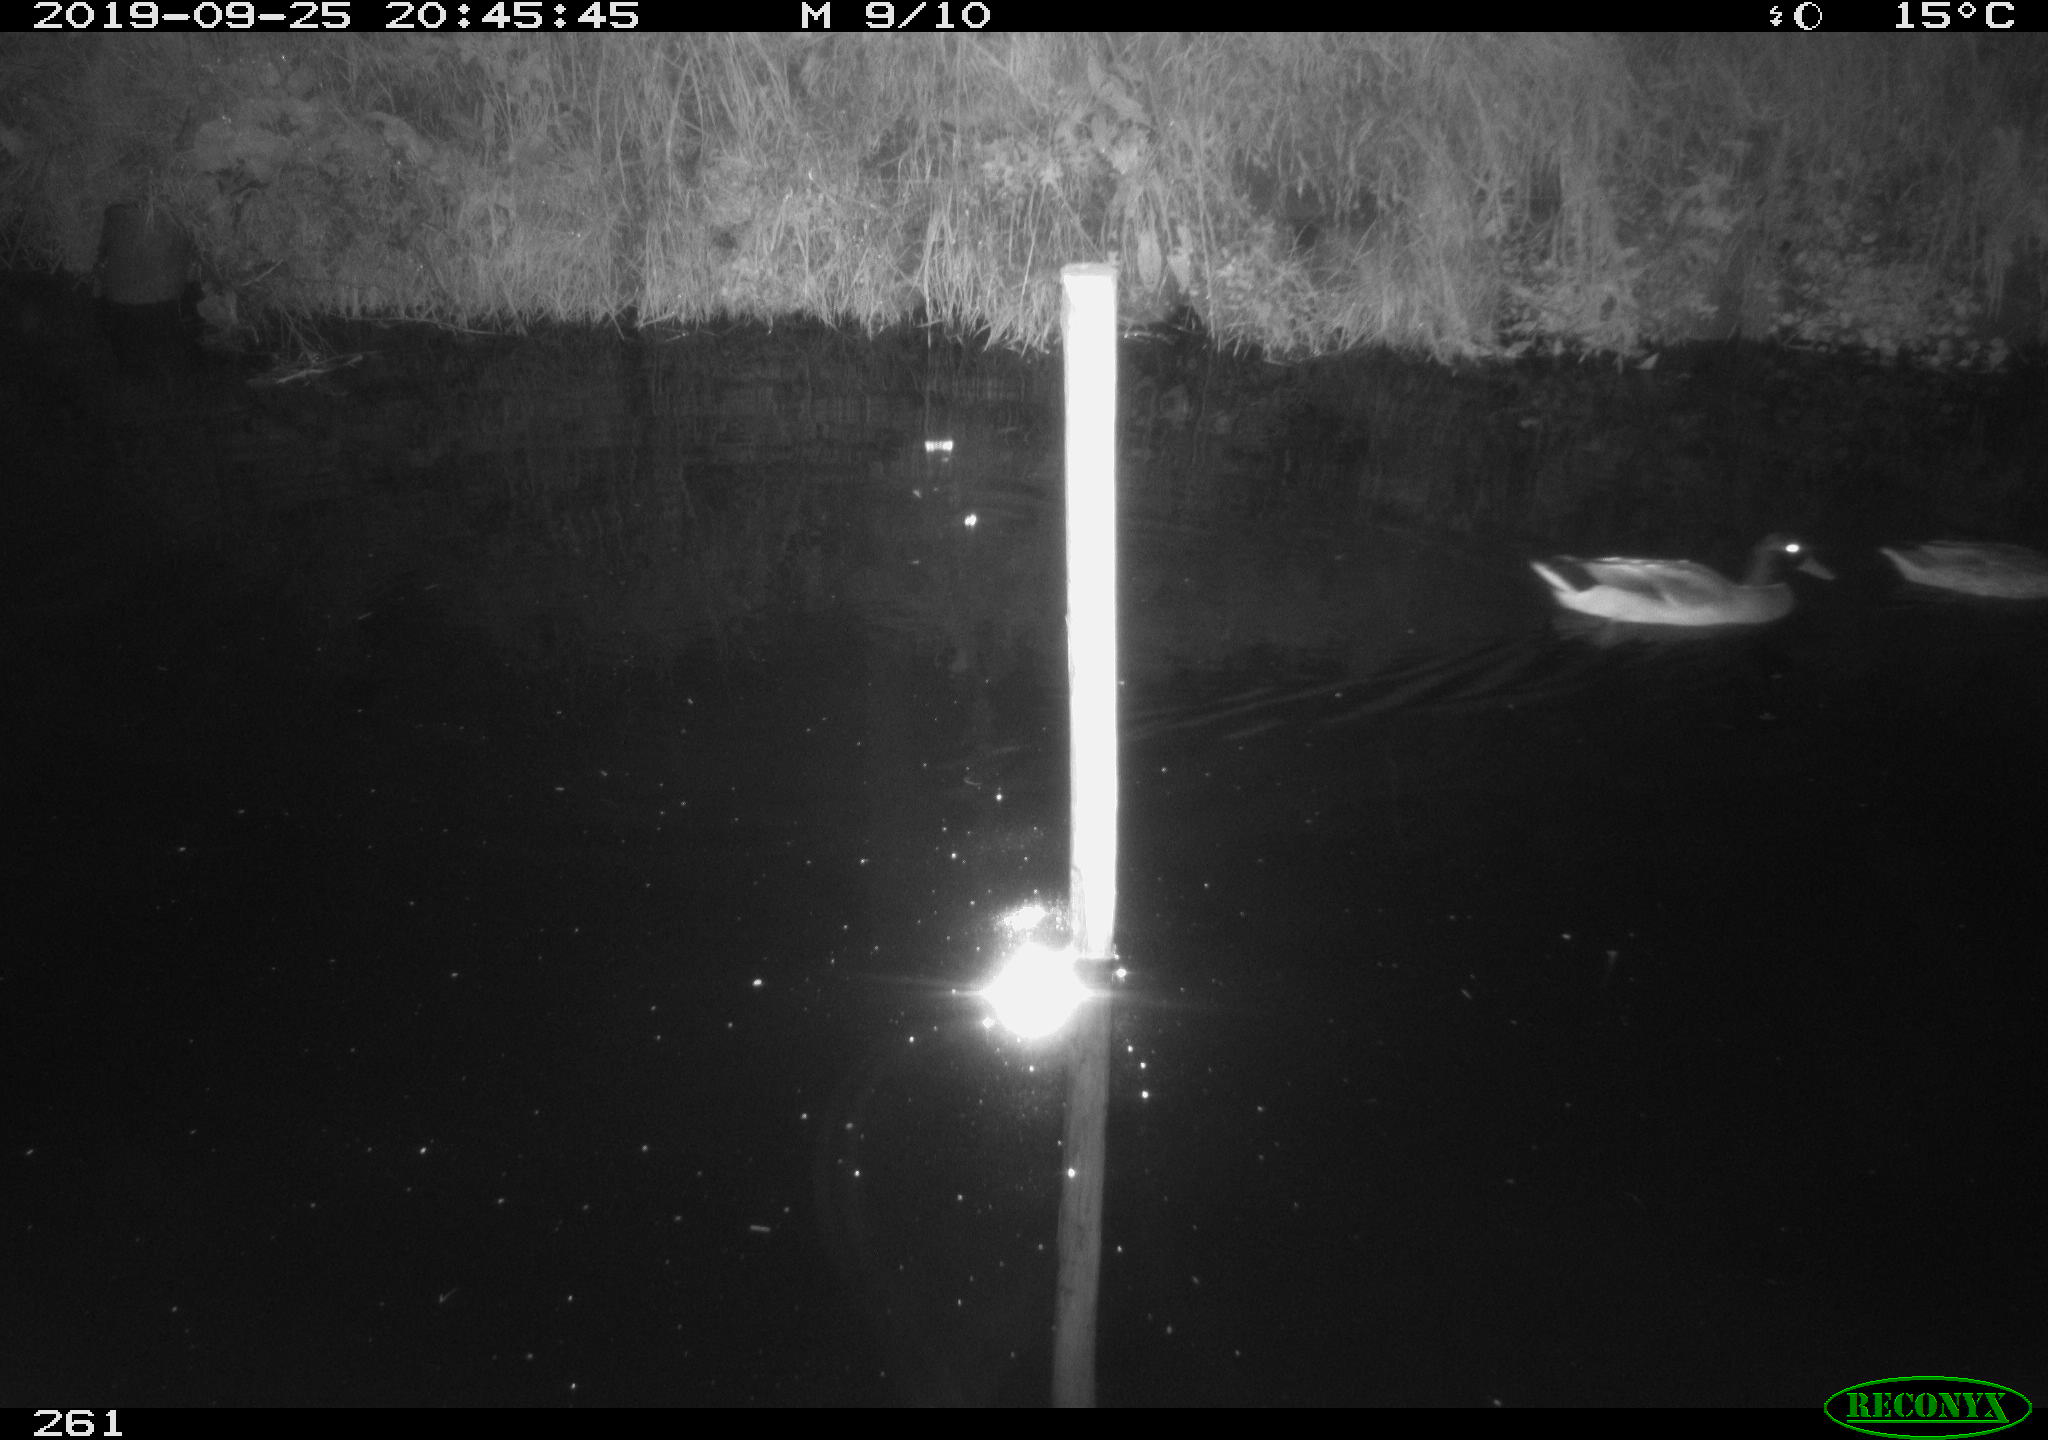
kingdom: Animalia
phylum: Chordata
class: Aves
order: Anseriformes
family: Anatidae
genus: Anas
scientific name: Anas platyrhynchos
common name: Mallard
